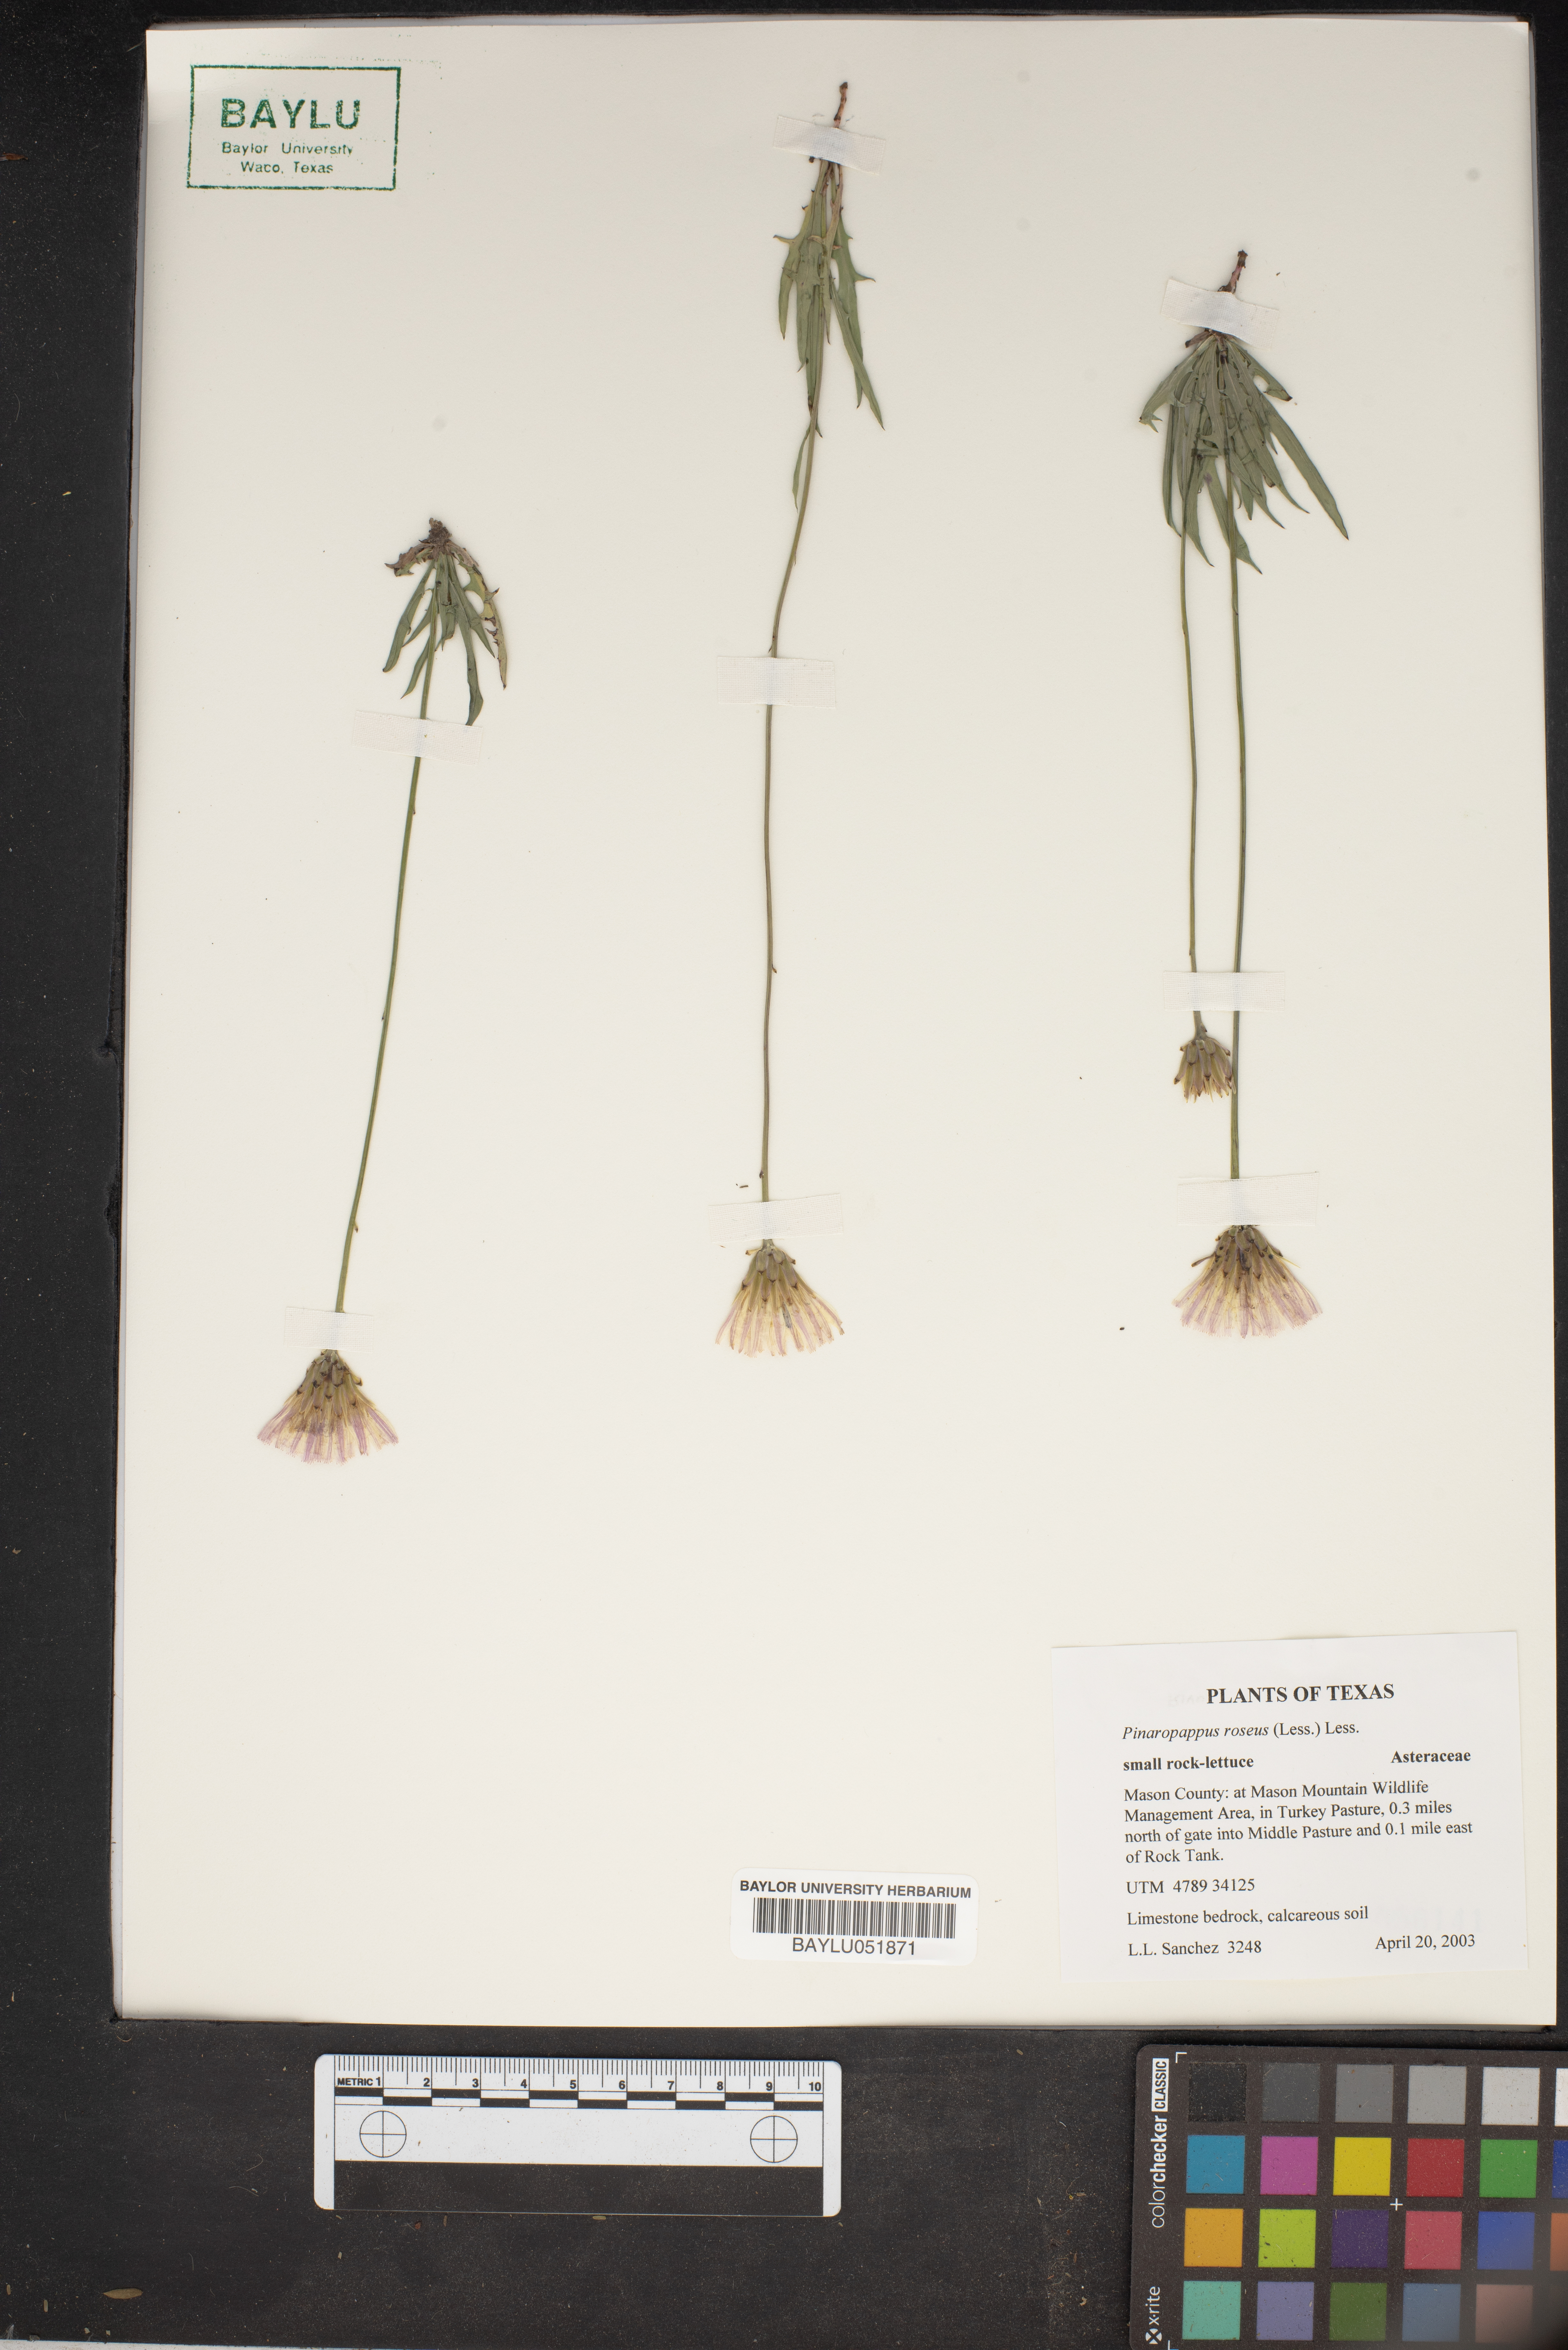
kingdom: Plantae
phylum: Tracheophyta
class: Magnoliopsida
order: Asterales
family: Asteraceae
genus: Pinaropappus
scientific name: Pinaropappus roseus
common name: Rock-lettuce
